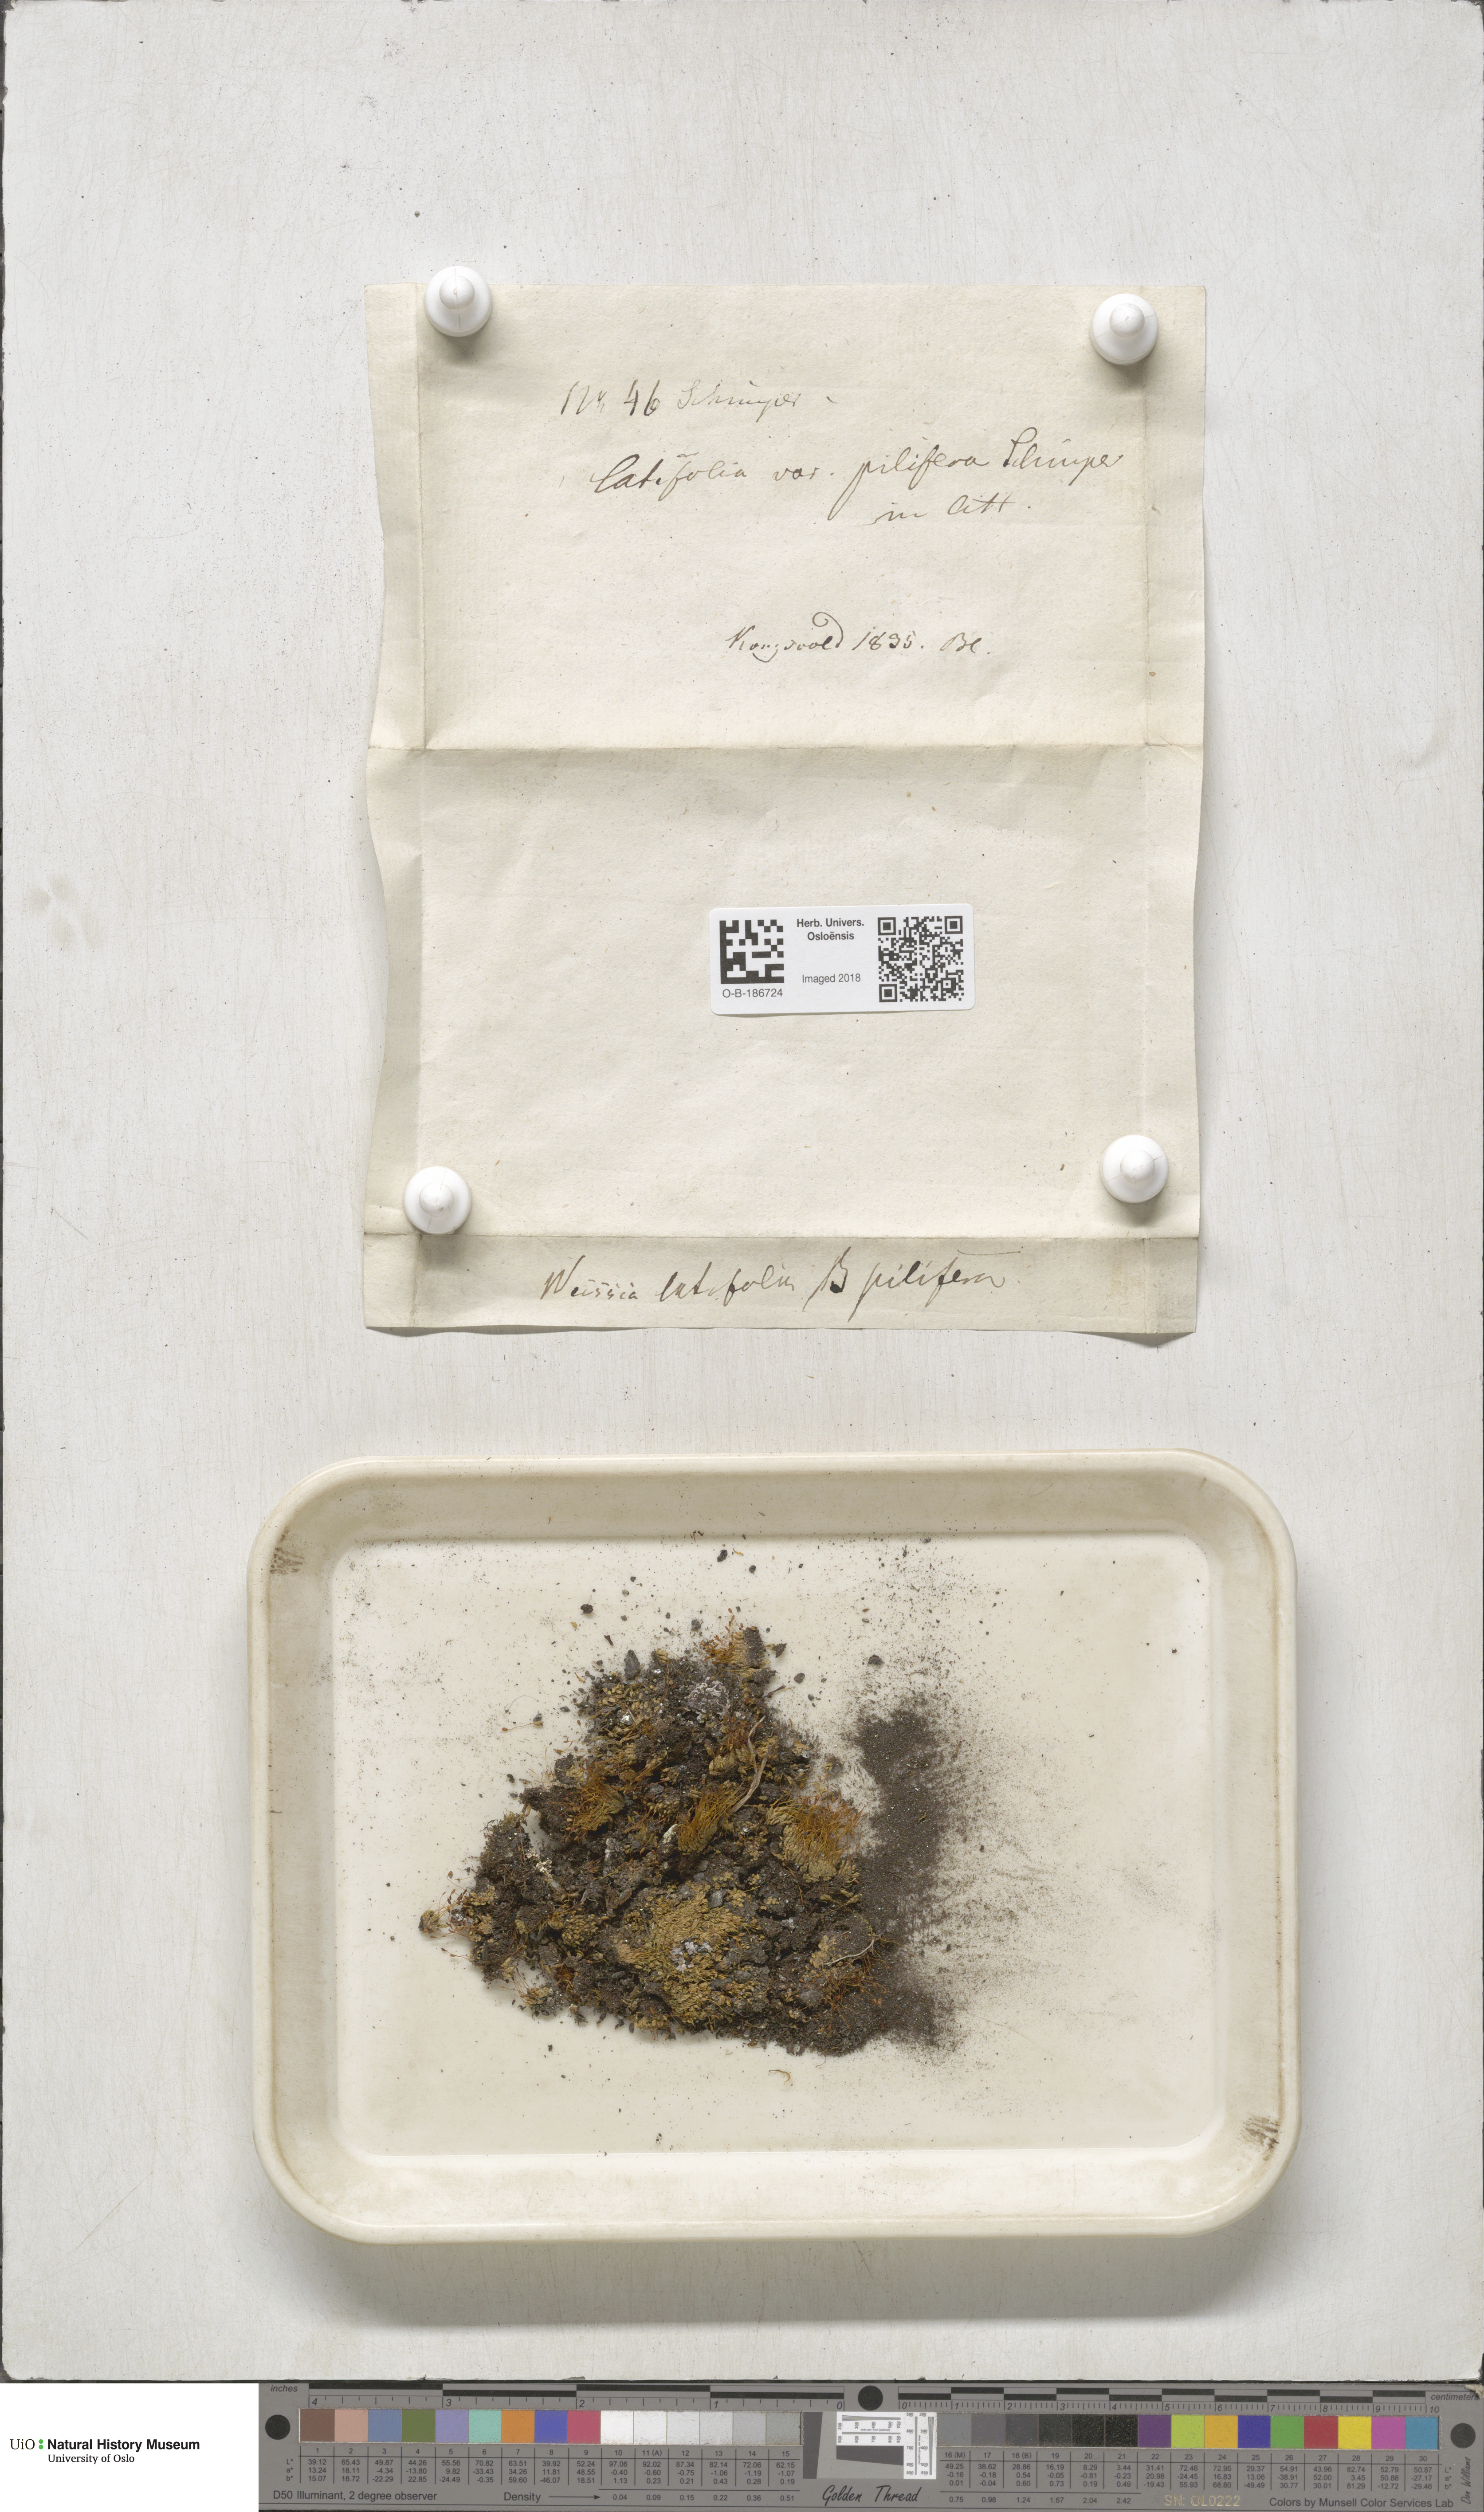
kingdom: Plantae
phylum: Bryophyta
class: Bryopsida
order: Pottiales
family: Pottiaceae
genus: Stegonia
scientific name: Stegonia latifolia
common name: Hood-leaved screw-moss
